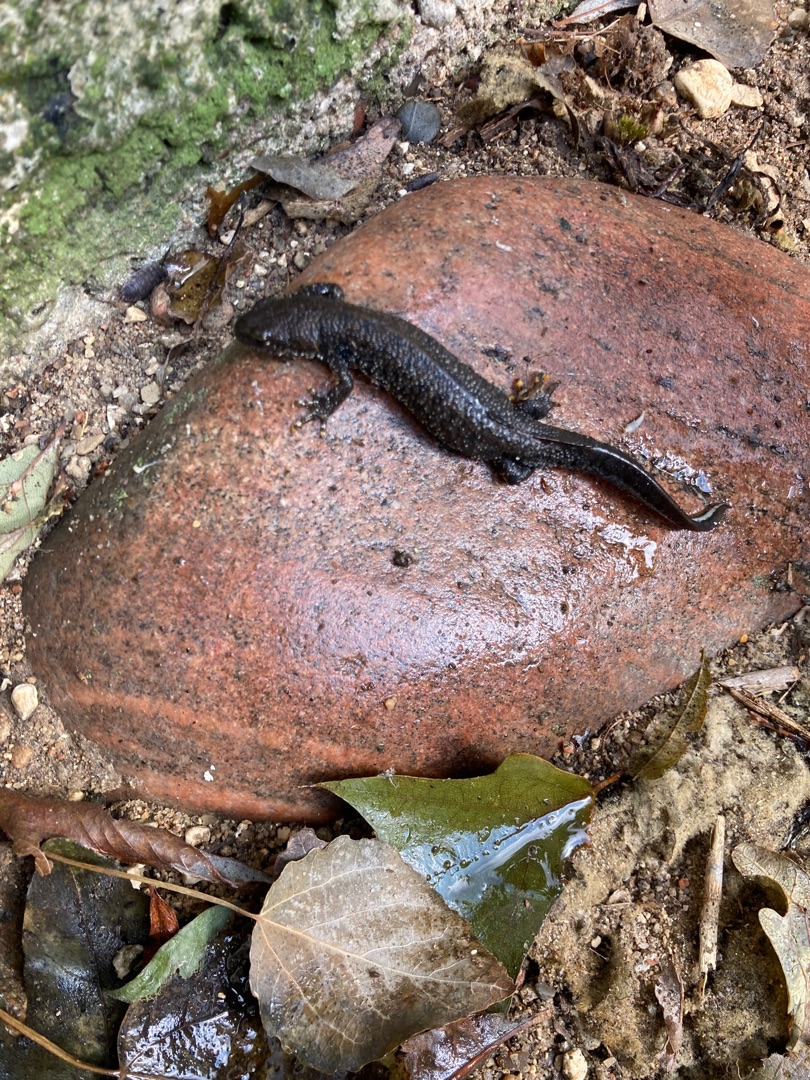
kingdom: Animalia
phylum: Chordata
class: Amphibia
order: Caudata
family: Salamandridae
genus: Triturus
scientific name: Triturus cristatus
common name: Stor vandsalamander
